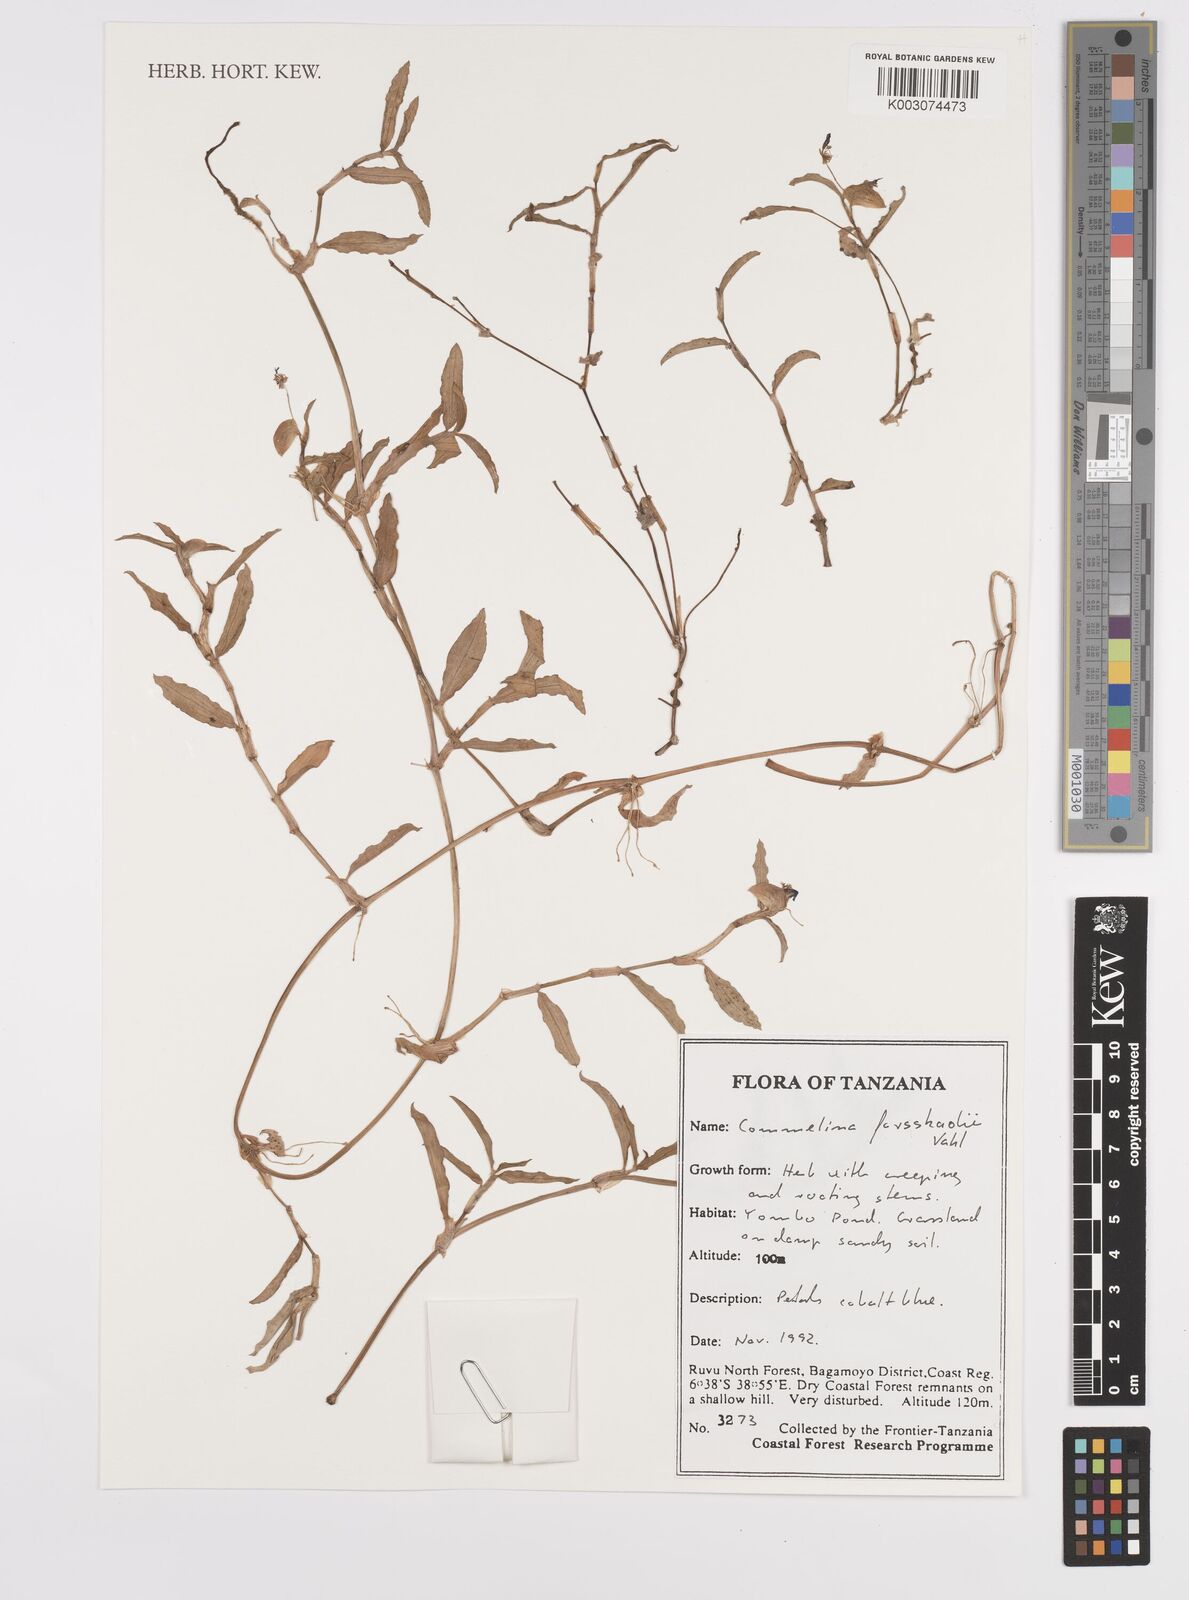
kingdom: Plantae
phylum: Tracheophyta
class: Liliopsida
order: Commelinales
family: Commelinaceae
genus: Commelina
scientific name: Commelina forskaolii
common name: Rat's ear
